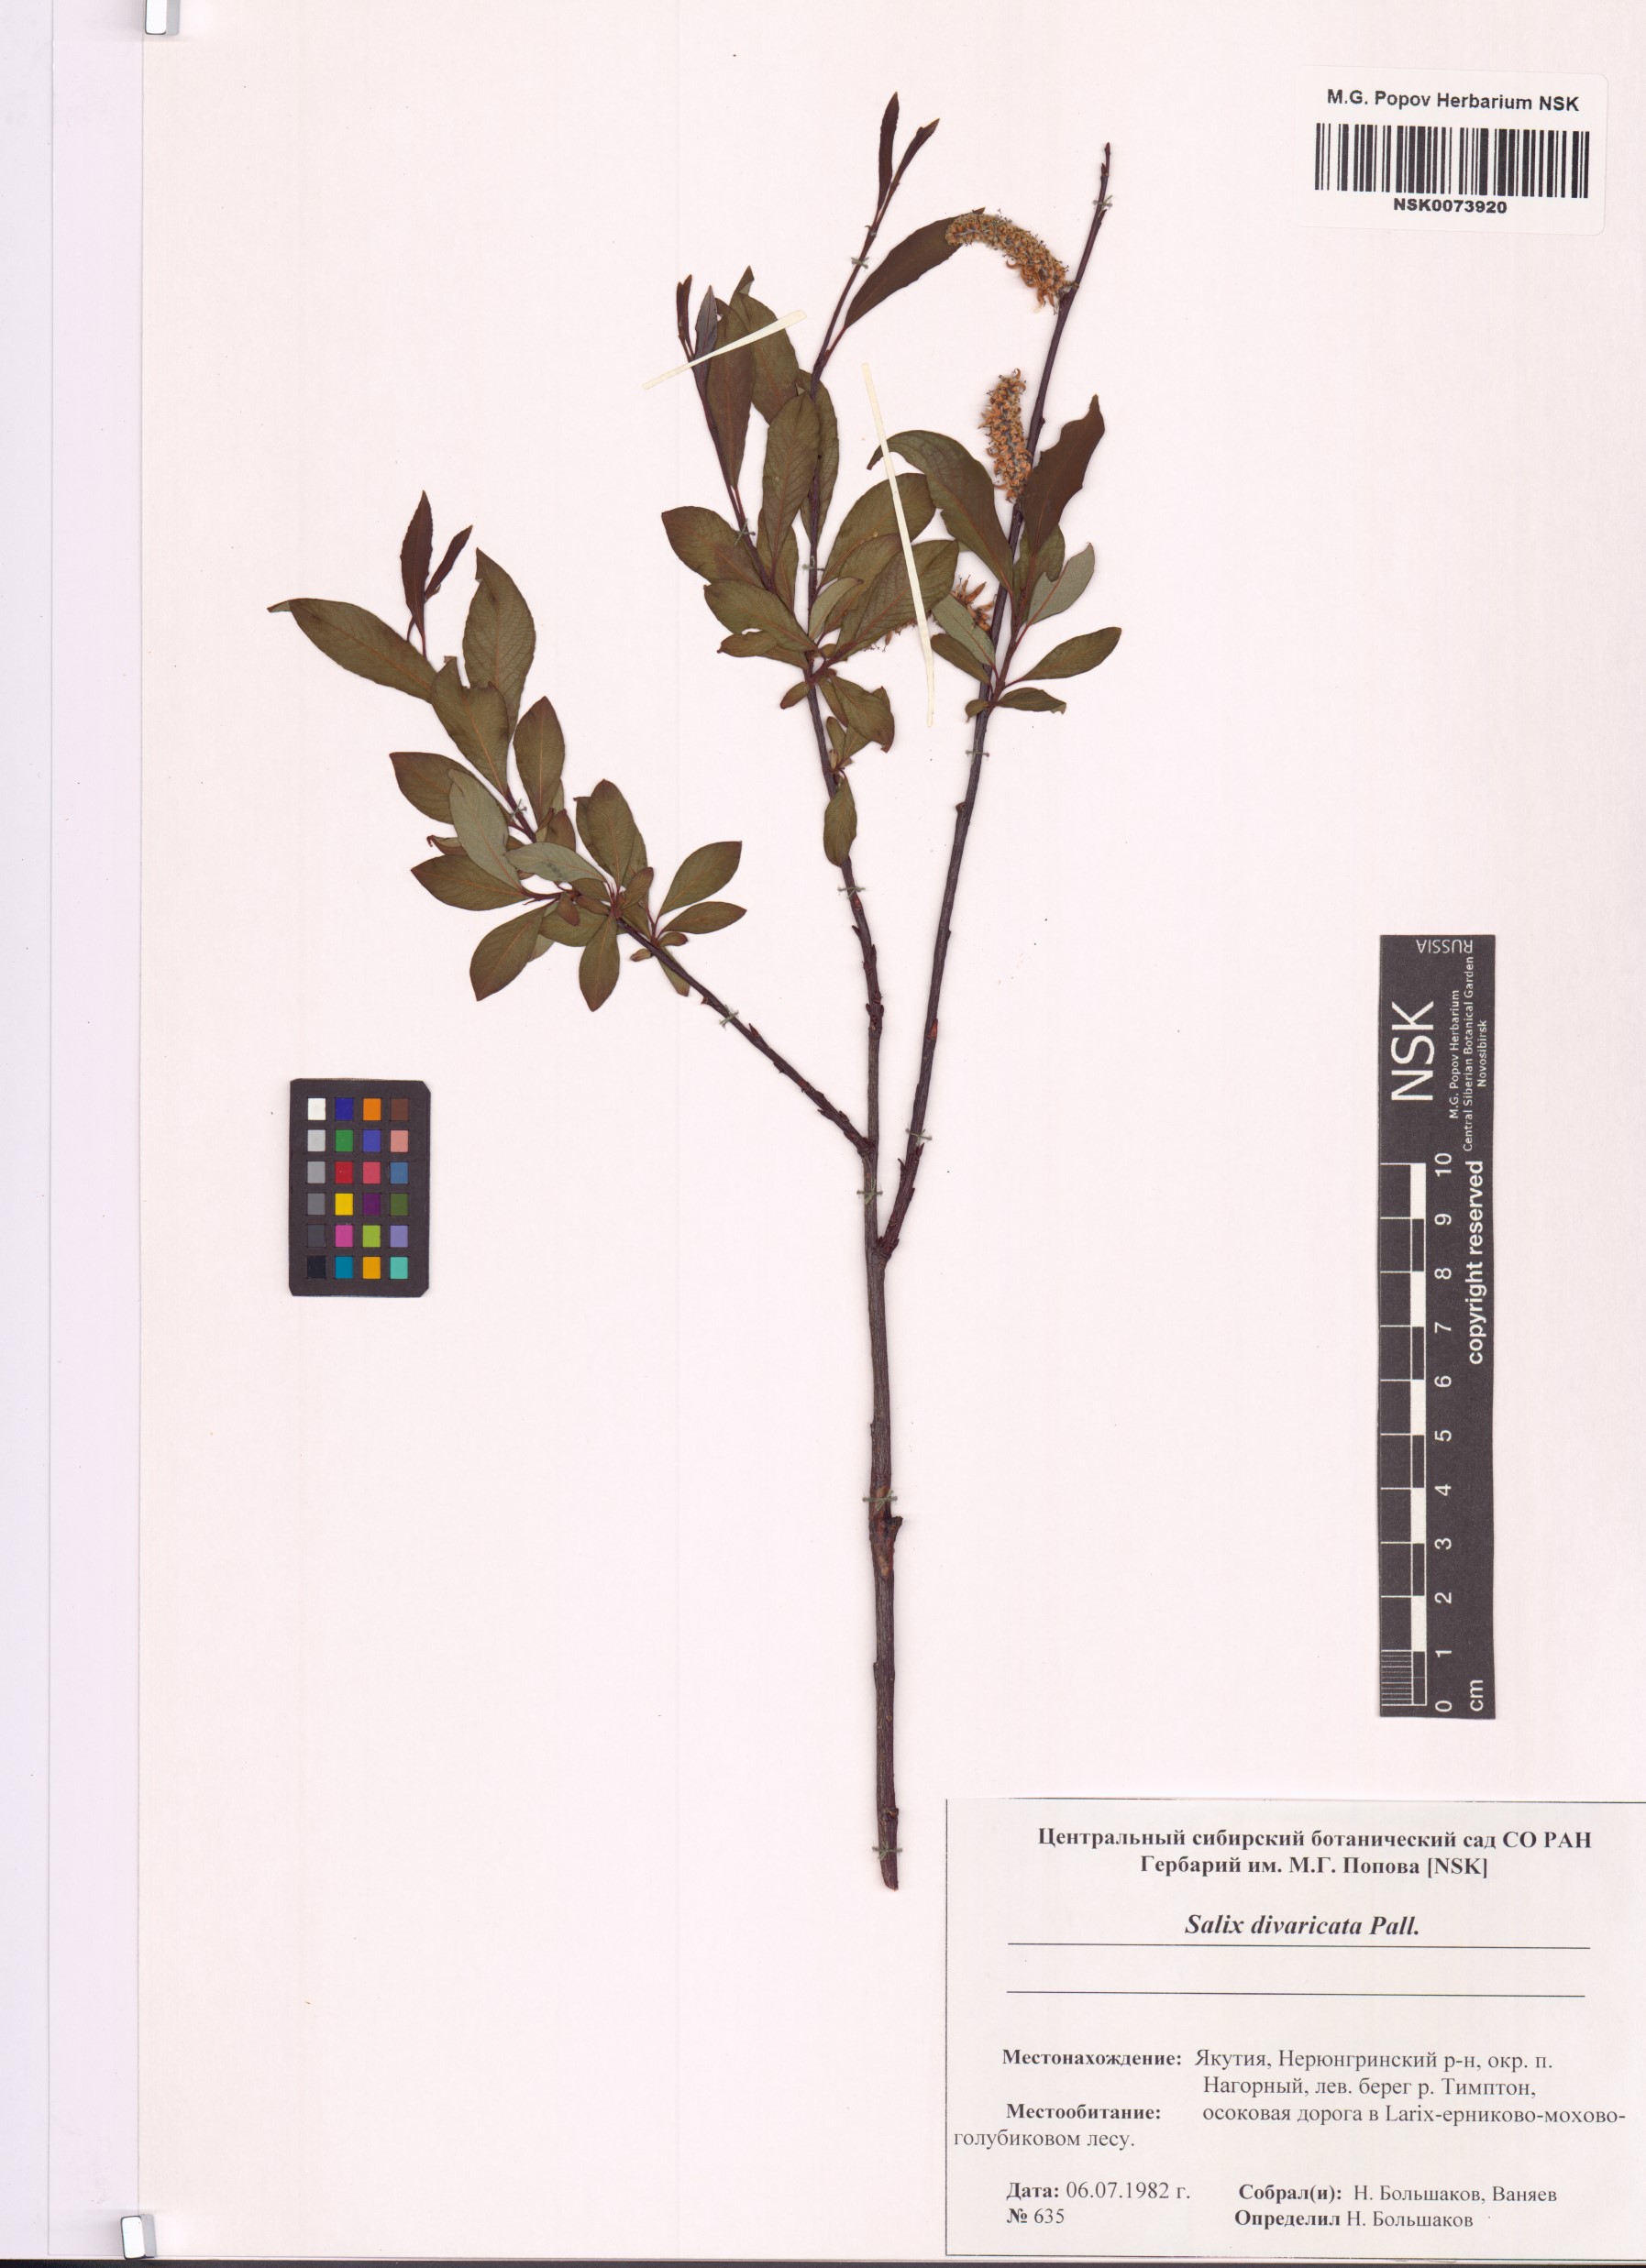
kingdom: Plantae
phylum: Tracheophyta
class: Magnoliopsida
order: Malpighiales
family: Salicaceae
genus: Salix
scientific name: Salix divaricata
